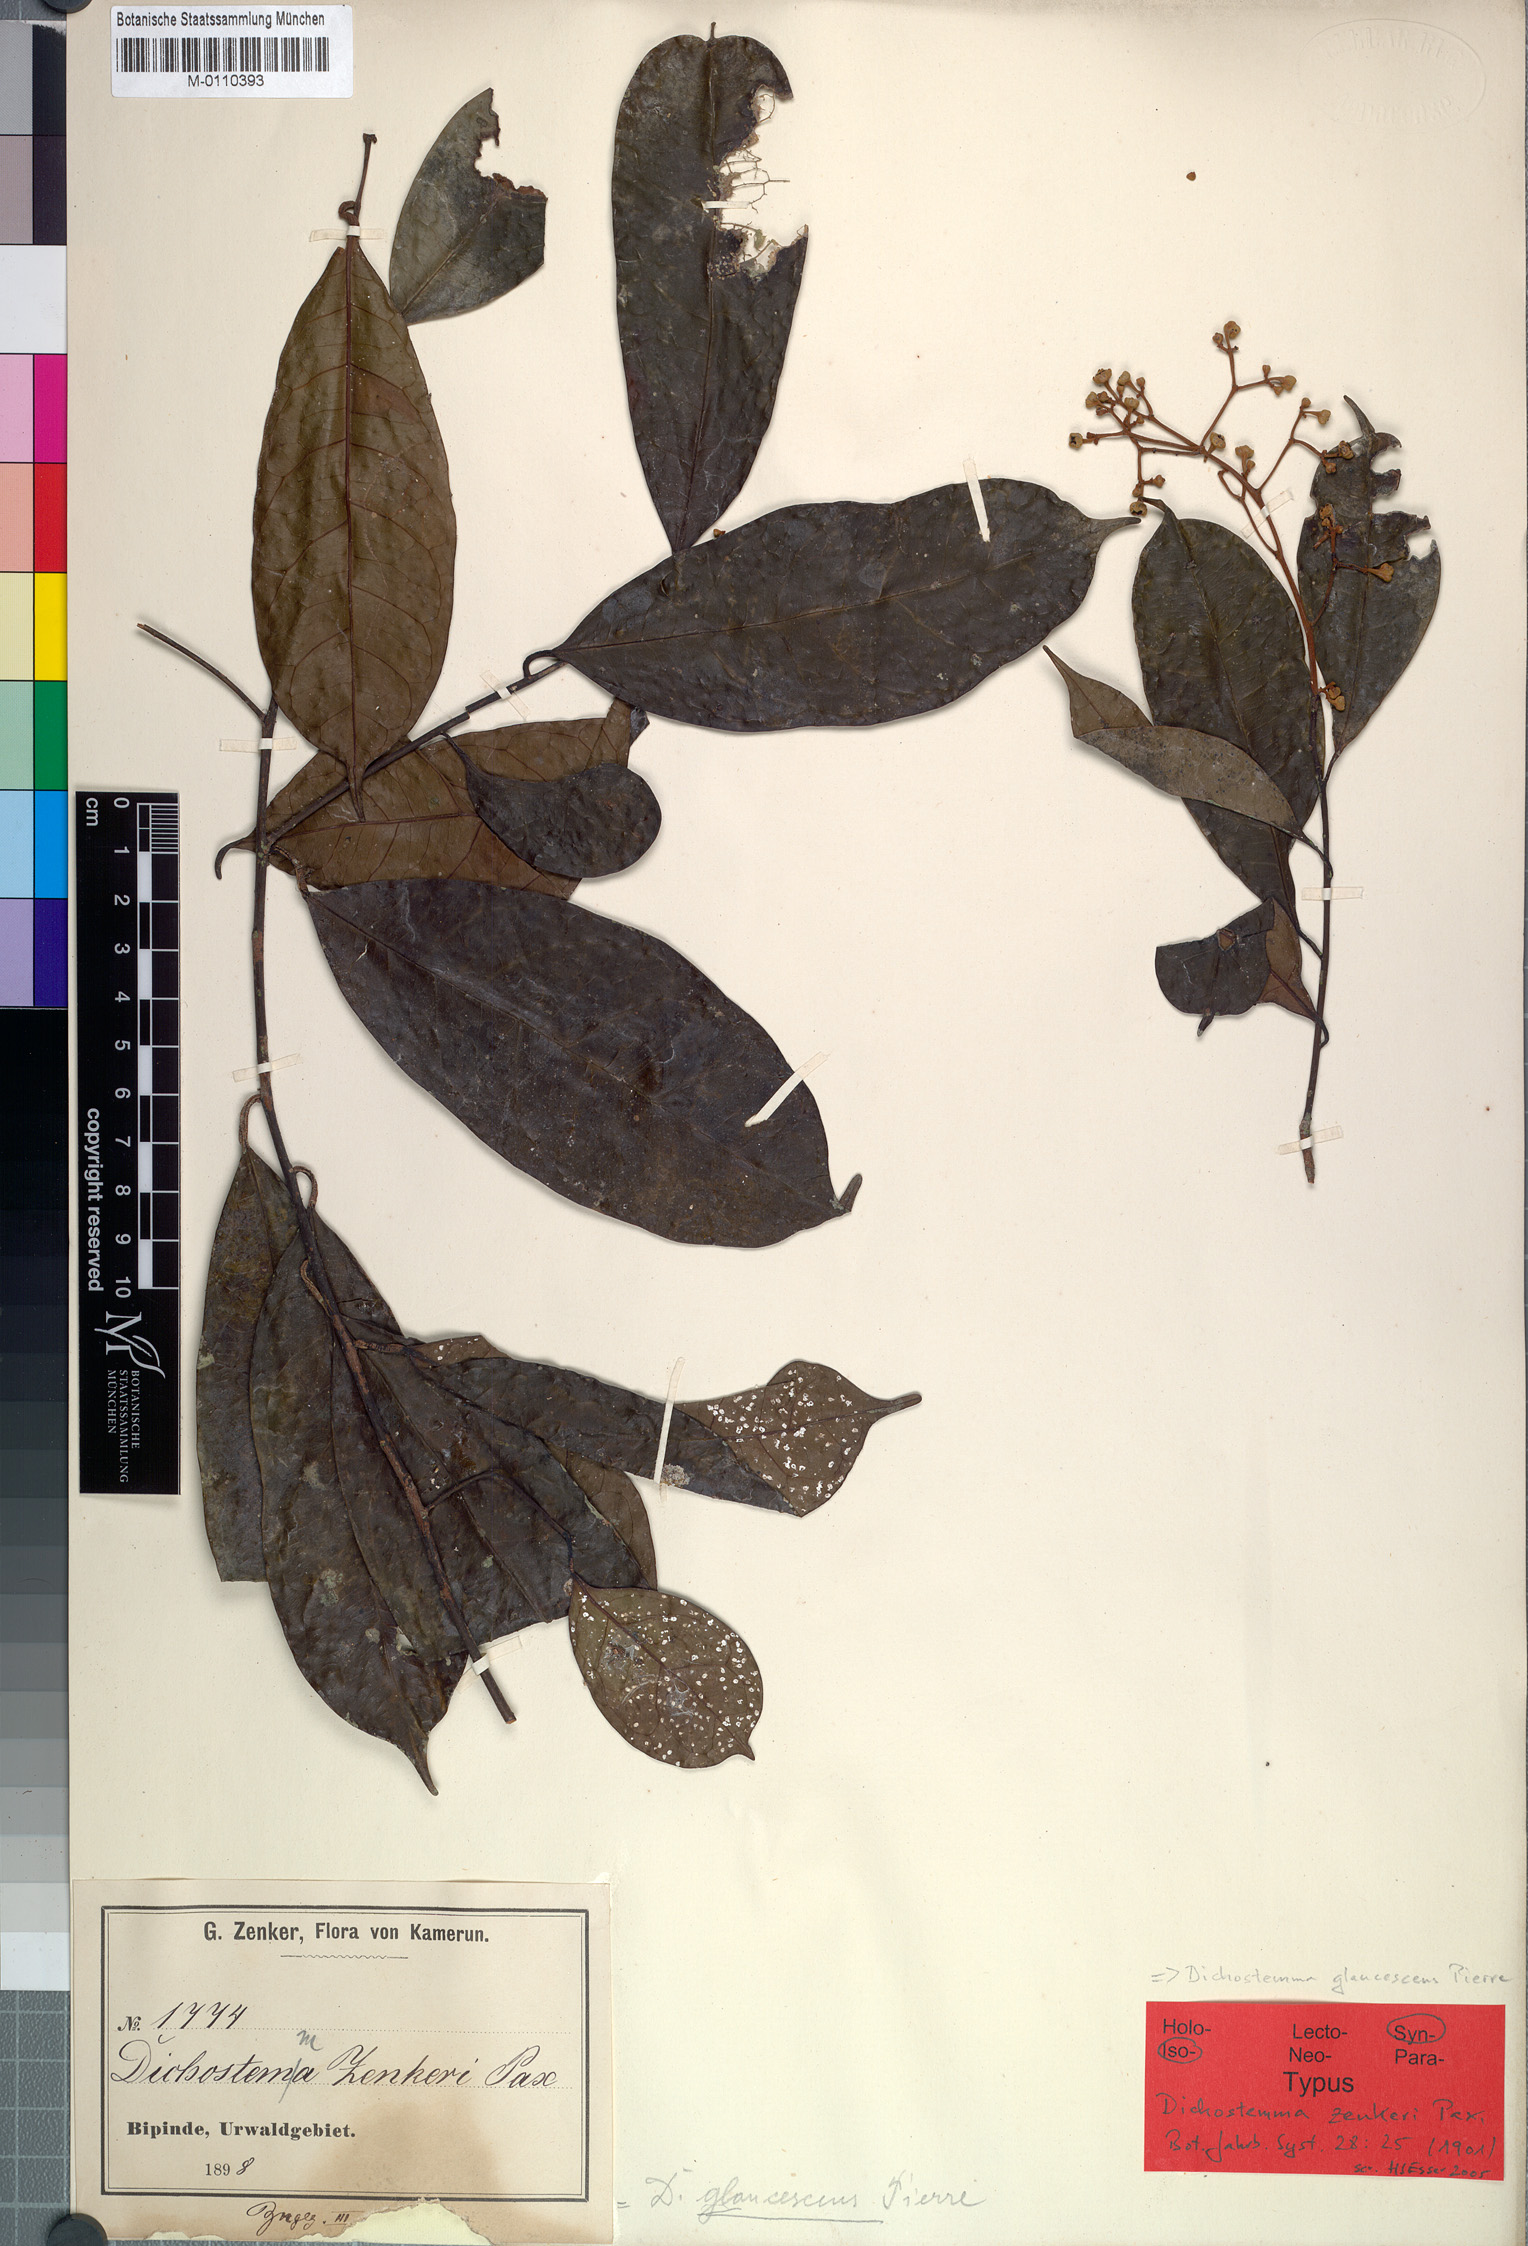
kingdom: Plantae
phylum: Tracheophyta
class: Magnoliopsida
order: Malpighiales
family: Euphorbiaceae
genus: Dichostemma
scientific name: Dichostemma zenkeri
